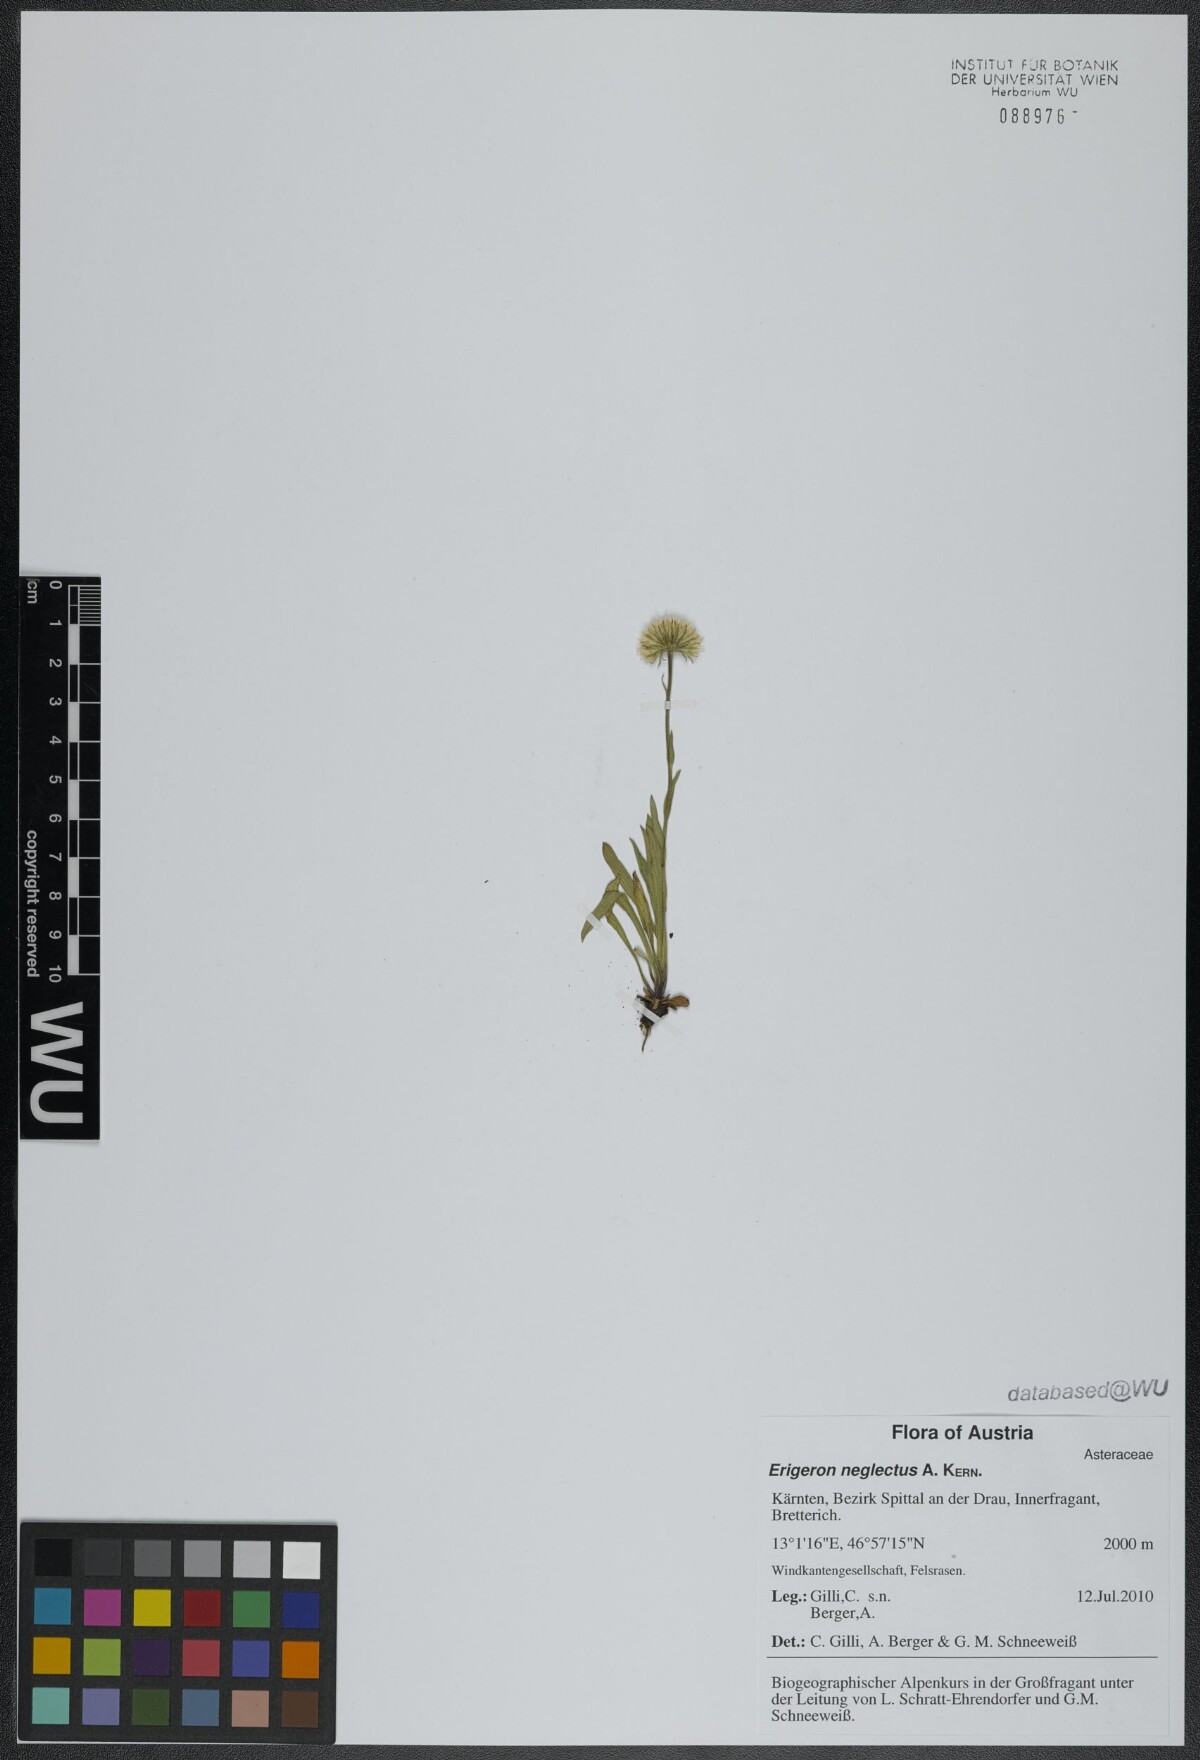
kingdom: Plantae
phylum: Tracheophyta
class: Magnoliopsida
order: Asterales
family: Asteraceae
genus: Erigeron
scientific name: Erigeron neglectus
